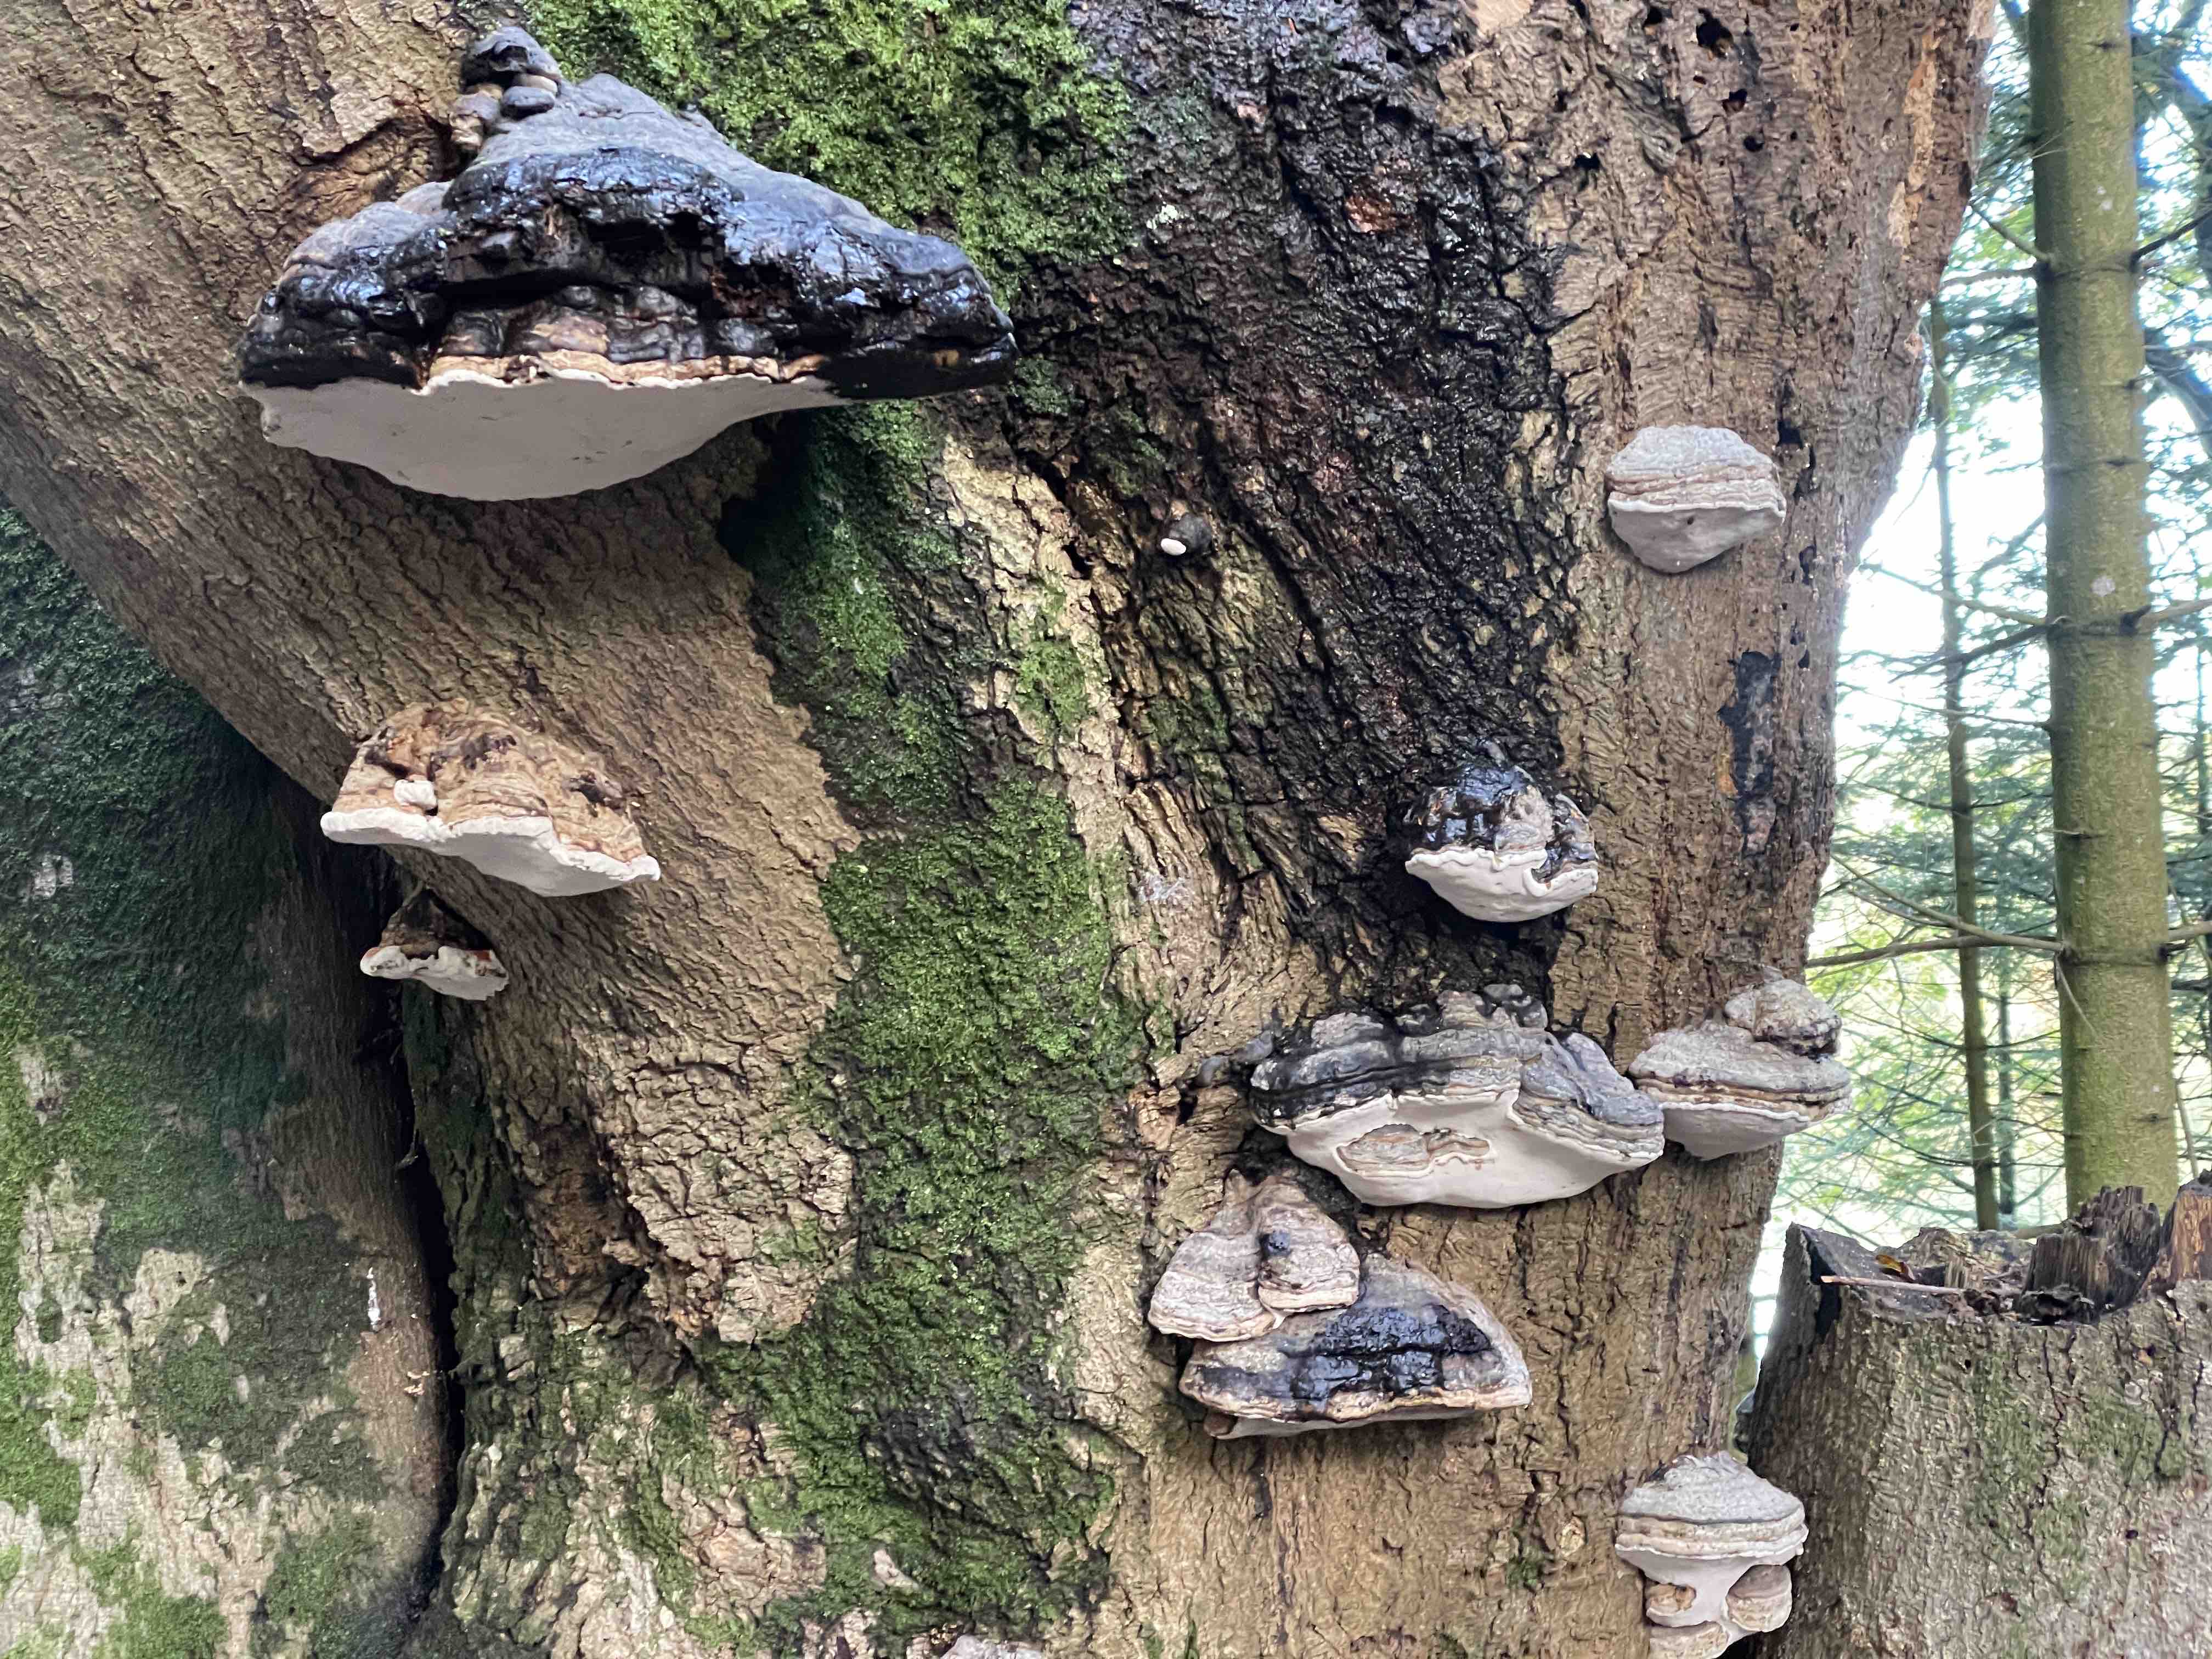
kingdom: Fungi
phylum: Basidiomycota
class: Agaricomycetes
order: Polyporales
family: Polyporaceae
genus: Fomes
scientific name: Fomes fomentarius
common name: tøndersvamp
